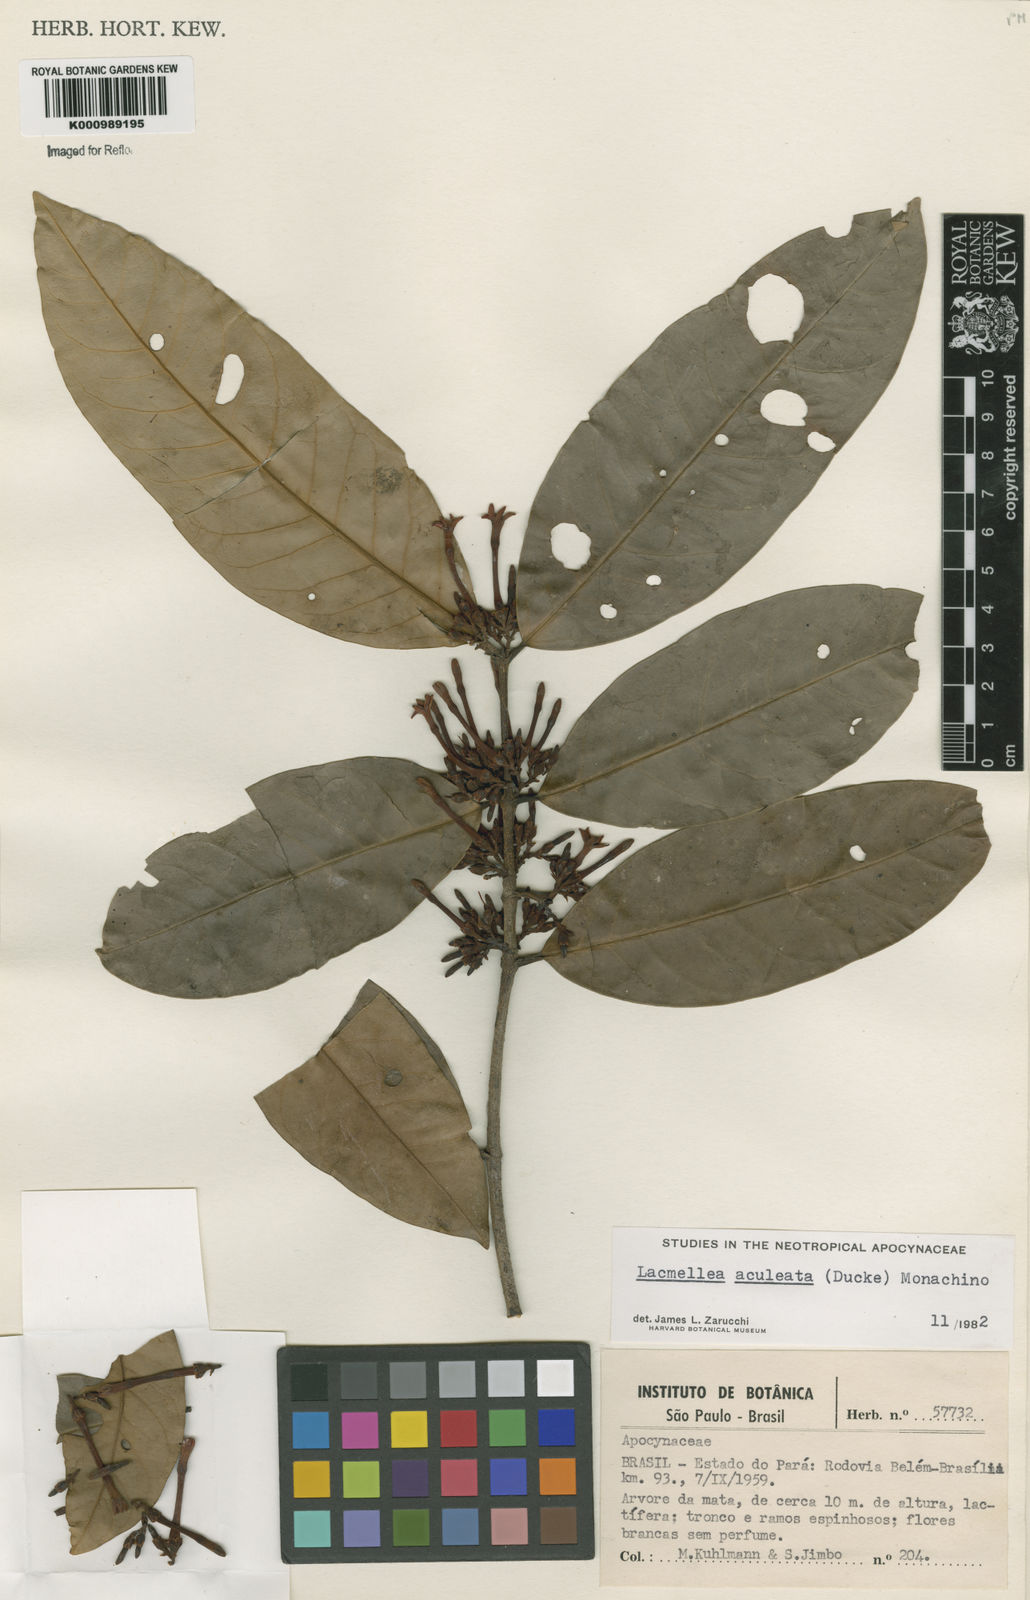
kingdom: Plantae
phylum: Tracheophyta
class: Magnoliopsida
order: Gentianales
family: Apocynaceae
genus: Lacmellea
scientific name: Lacmellea floribunda
